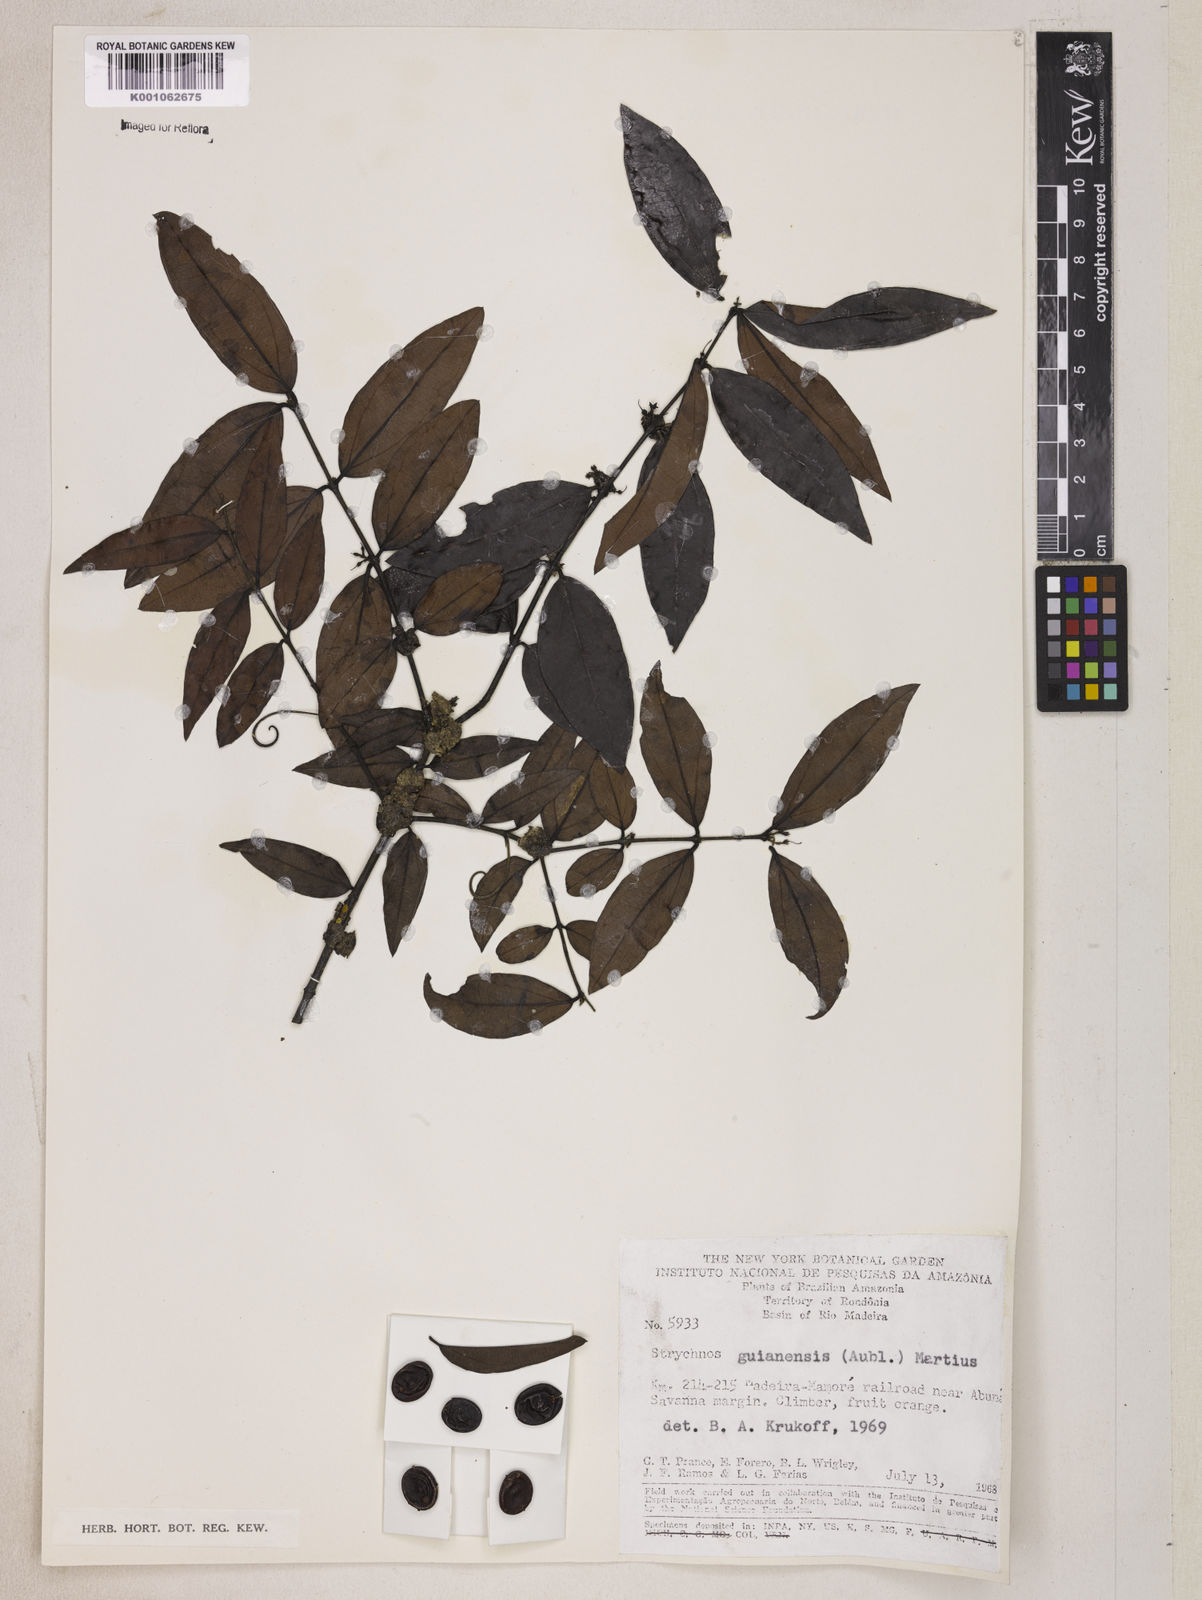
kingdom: Plantae
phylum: Tracheophyta
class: Magnoliopsida
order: Gentianales
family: Loganiaceae
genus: Strychnos
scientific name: Strychnos guianensis
